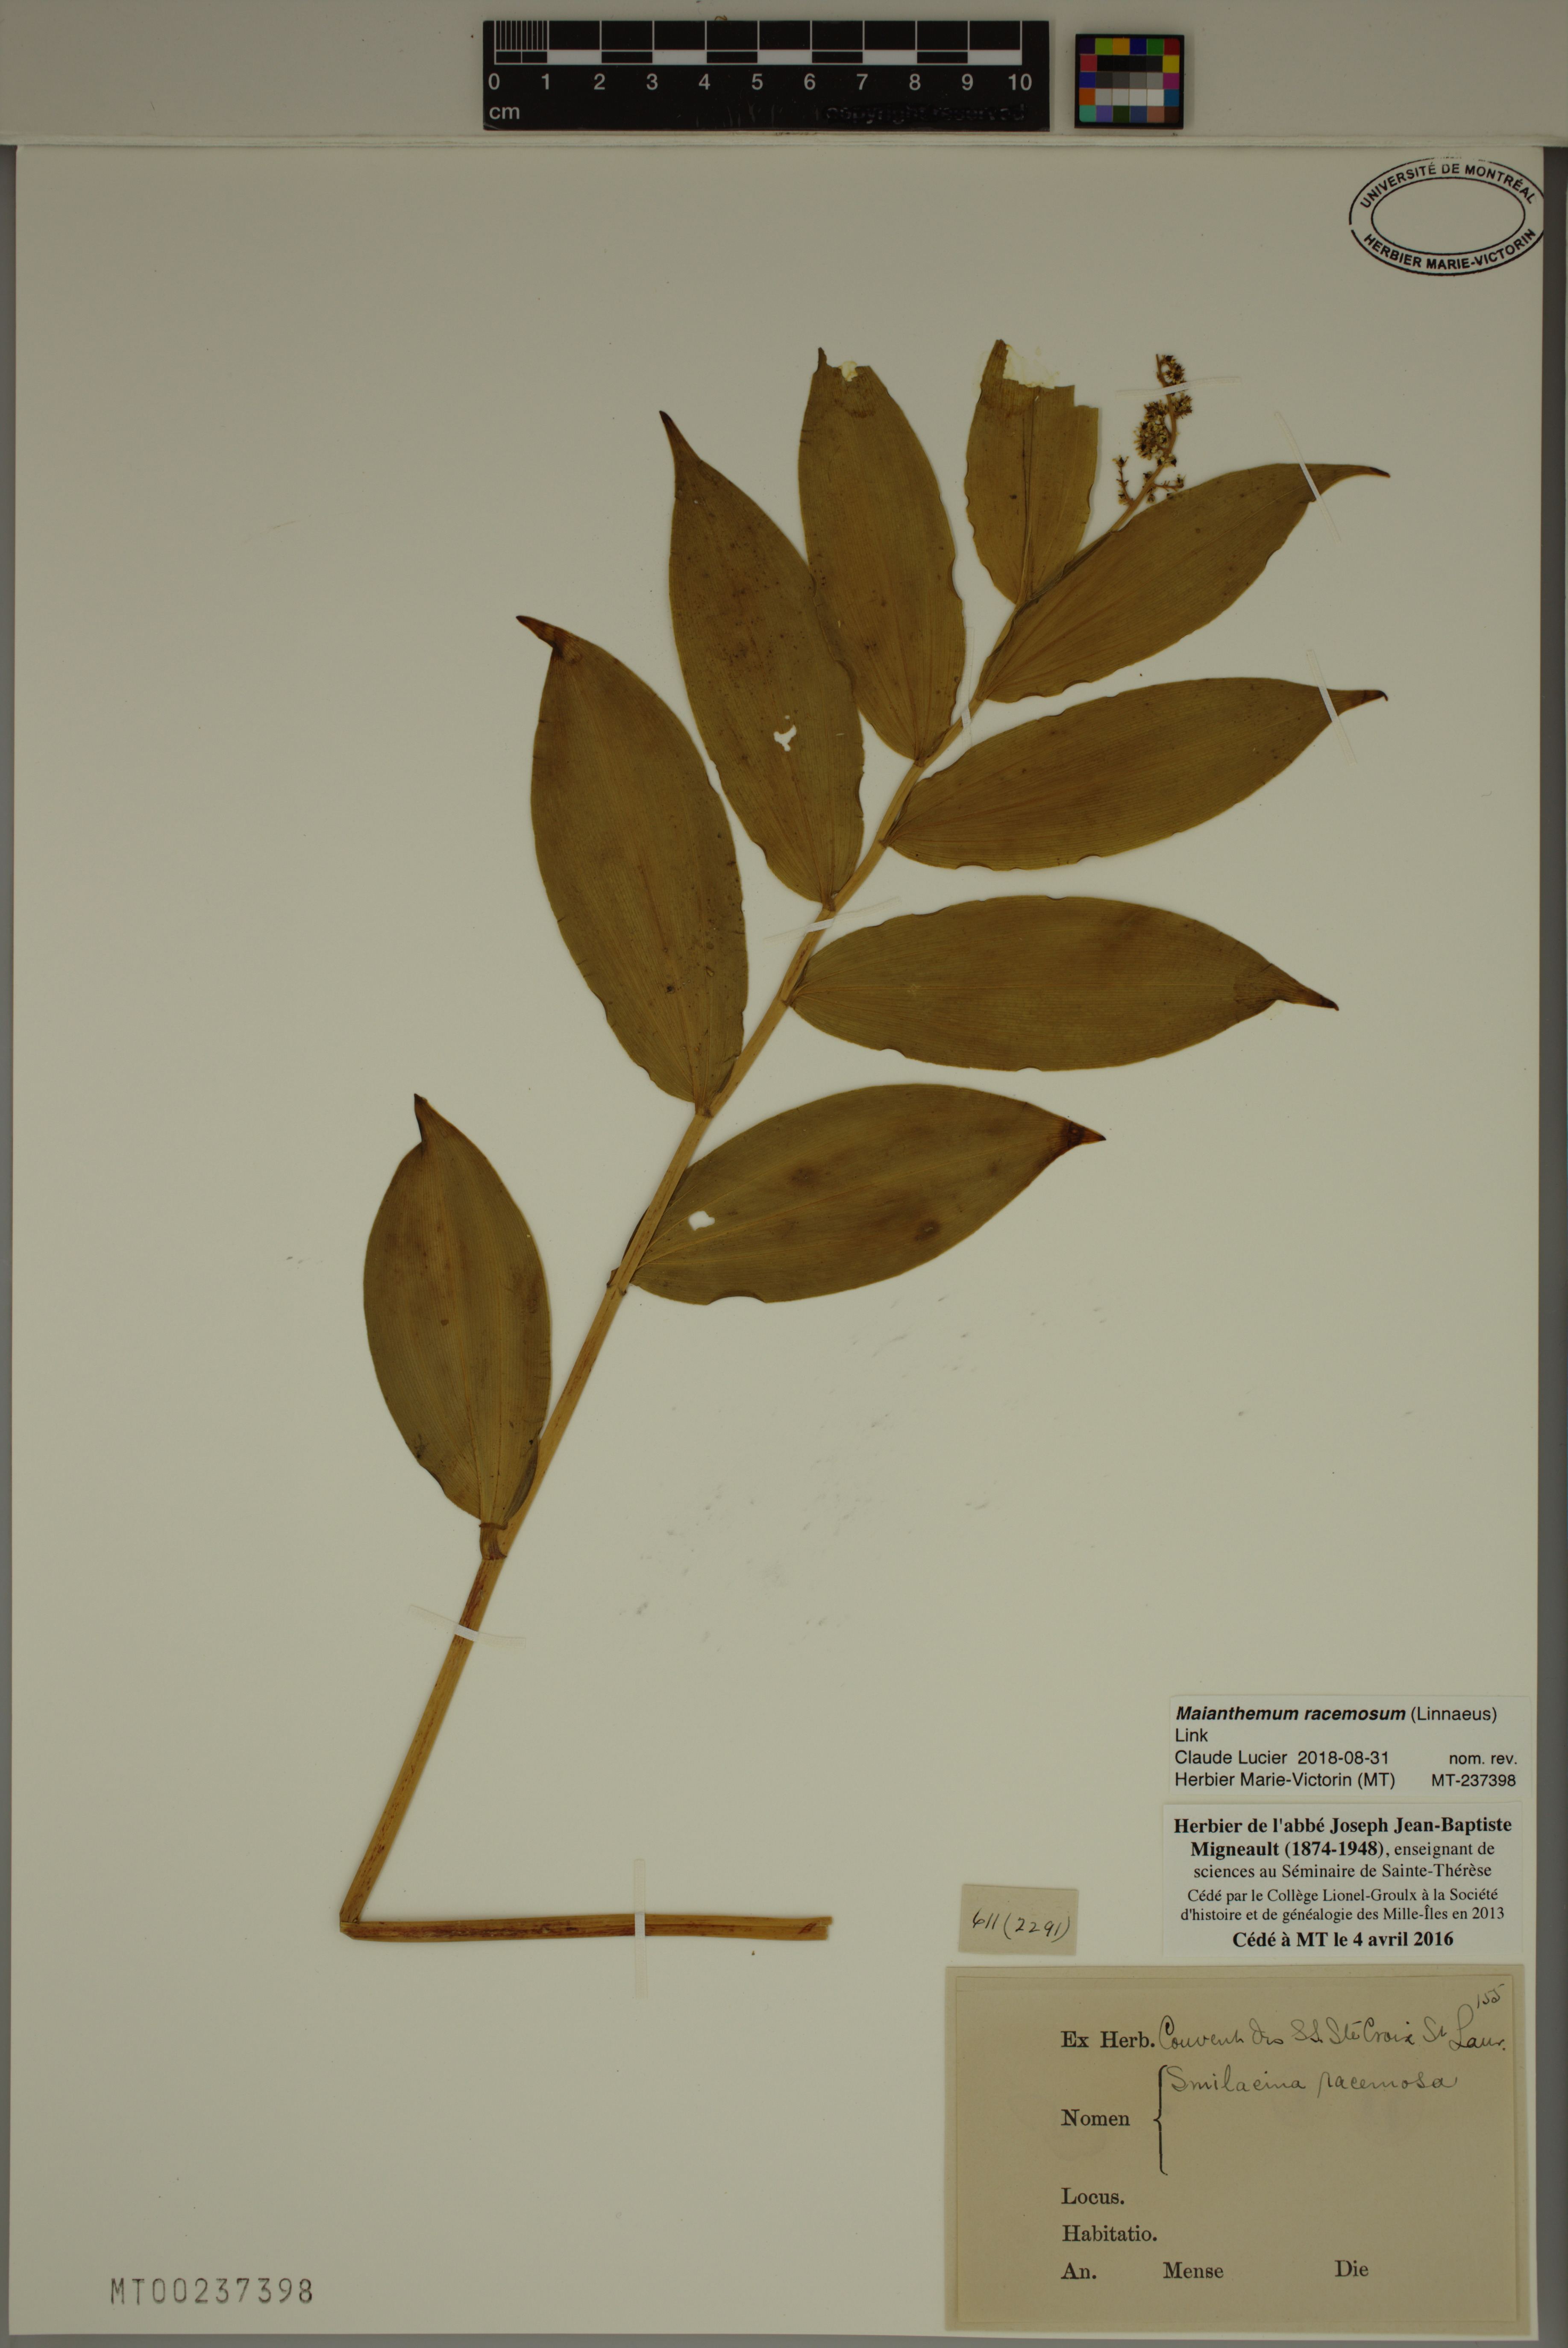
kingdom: Plantae
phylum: Tracheophyta
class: Liliopsida
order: Asparagales
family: Asparagaceae
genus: Maianthemum
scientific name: Maianthemum racemosum
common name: False spikenard
